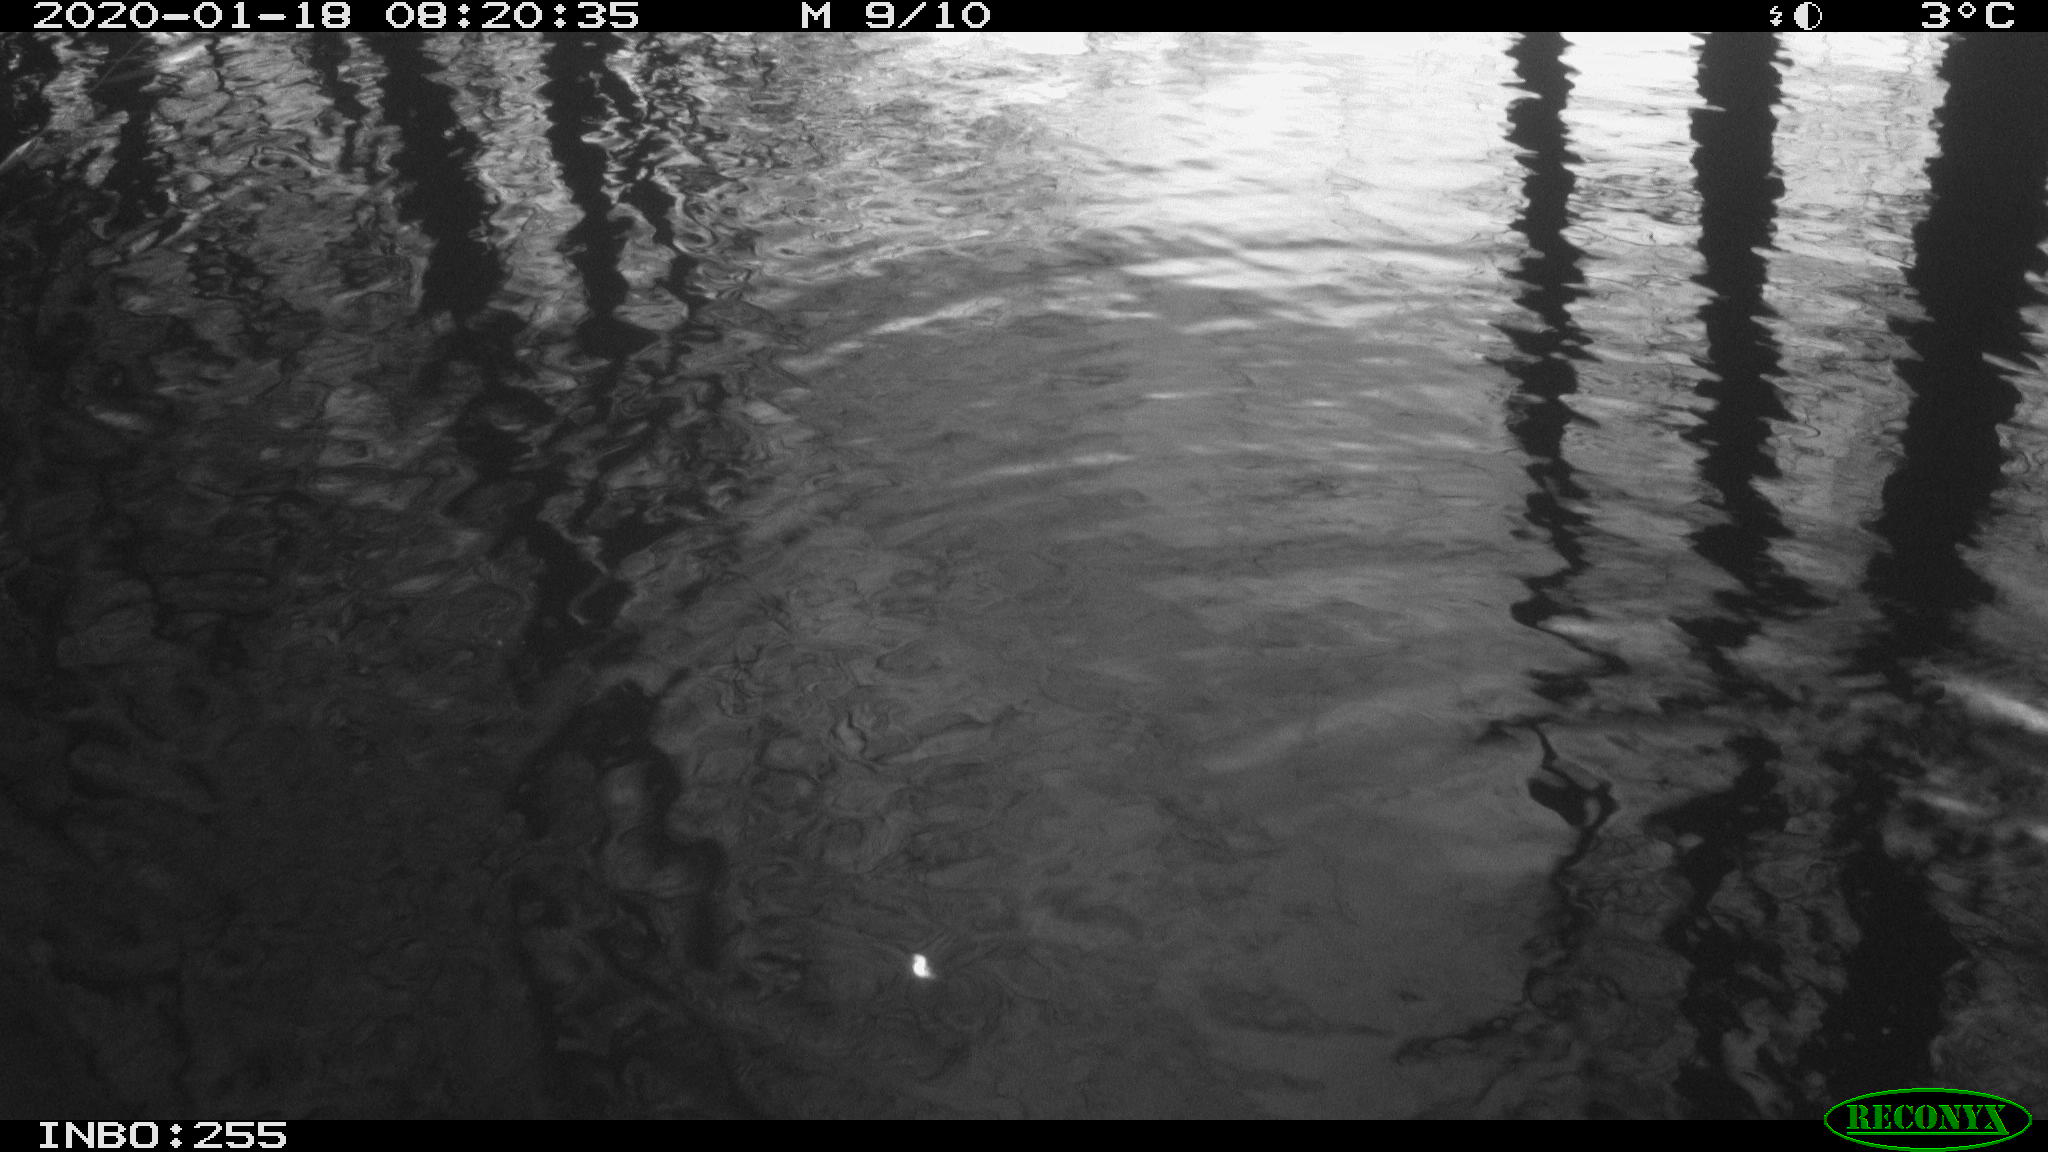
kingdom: Animalia
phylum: Chordata
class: Aves
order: Gruiformes
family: Rallidae
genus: Gallinula
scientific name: Gallinula chloropus
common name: Common moorhen
